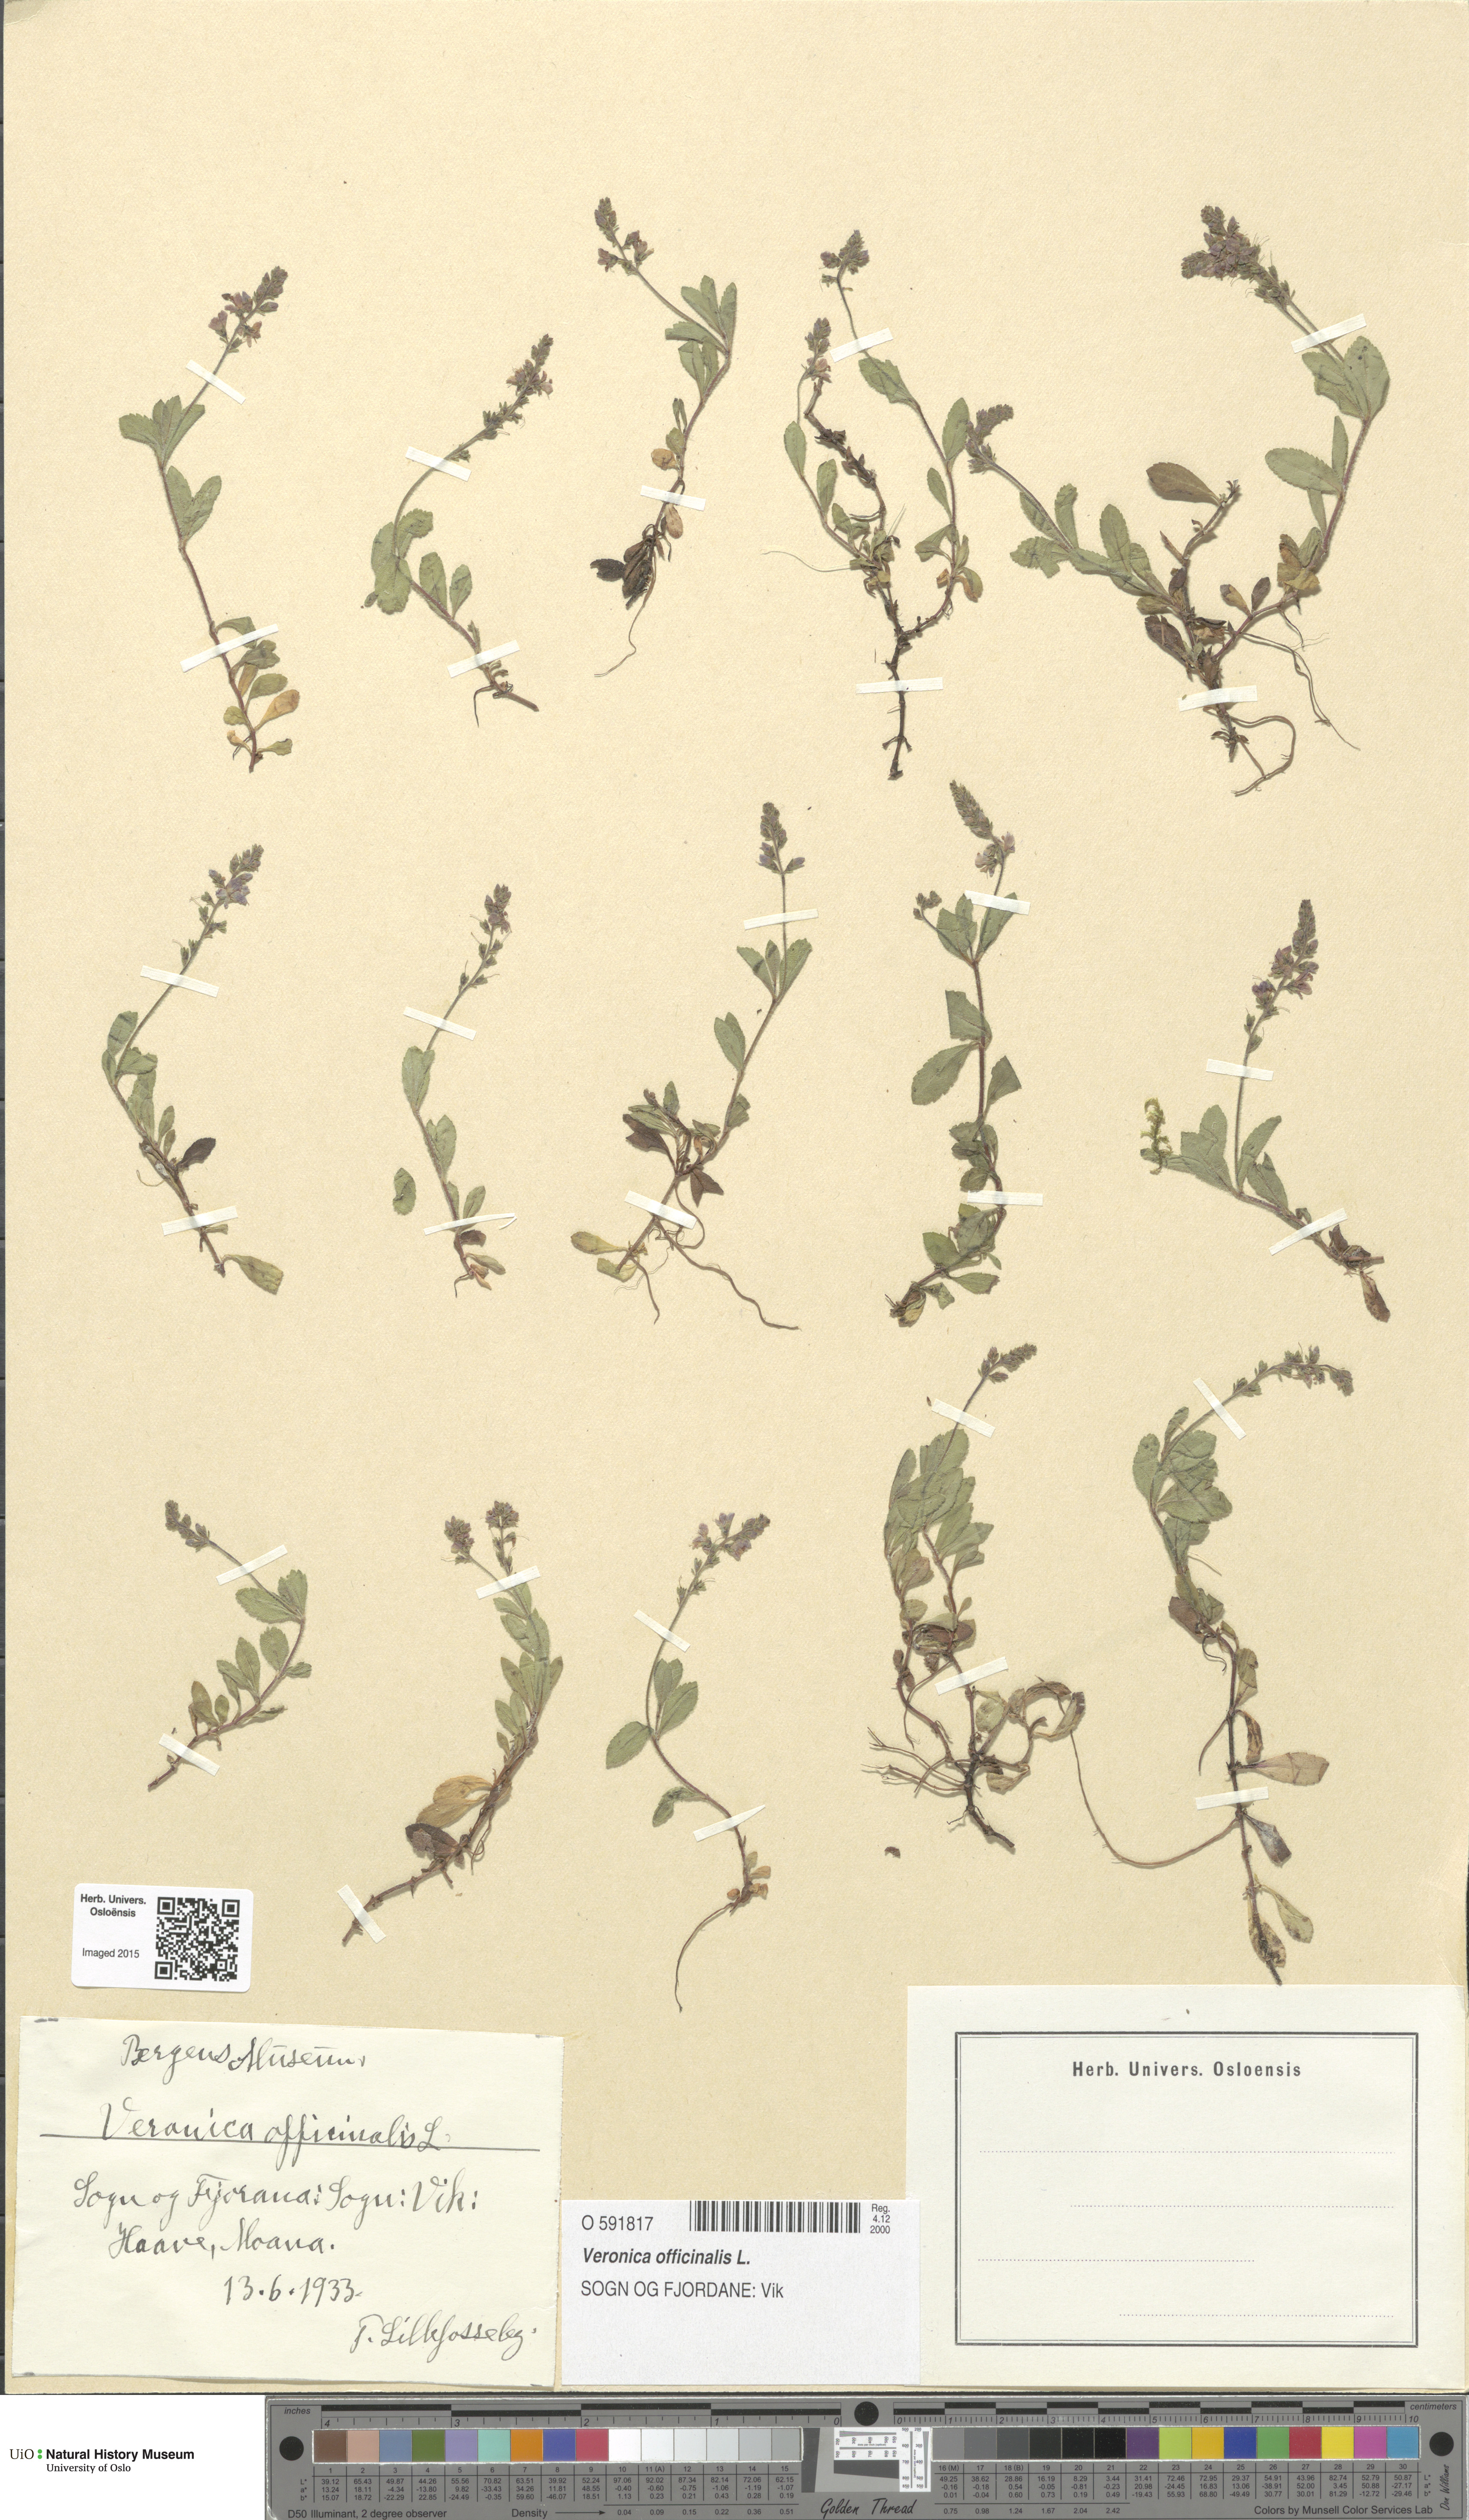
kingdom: Plantae
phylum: Tracheophyta
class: Magnoliopsida
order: Lamiales
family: Plantaginaceae
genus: Veronica
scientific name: Veronica officinalis
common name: Common speedwell
